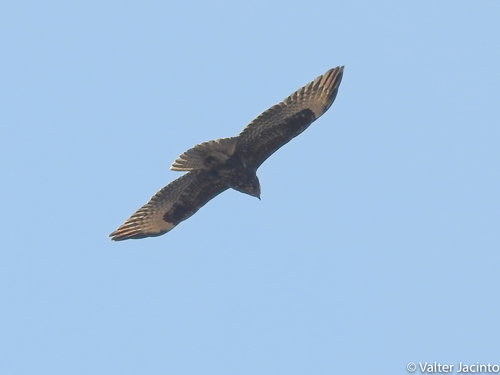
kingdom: Animalia
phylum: Chordata
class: Aves
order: Accipitriformes
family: Accipitridae
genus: Buteo
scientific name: Buteo buteo
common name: Common buzzard
